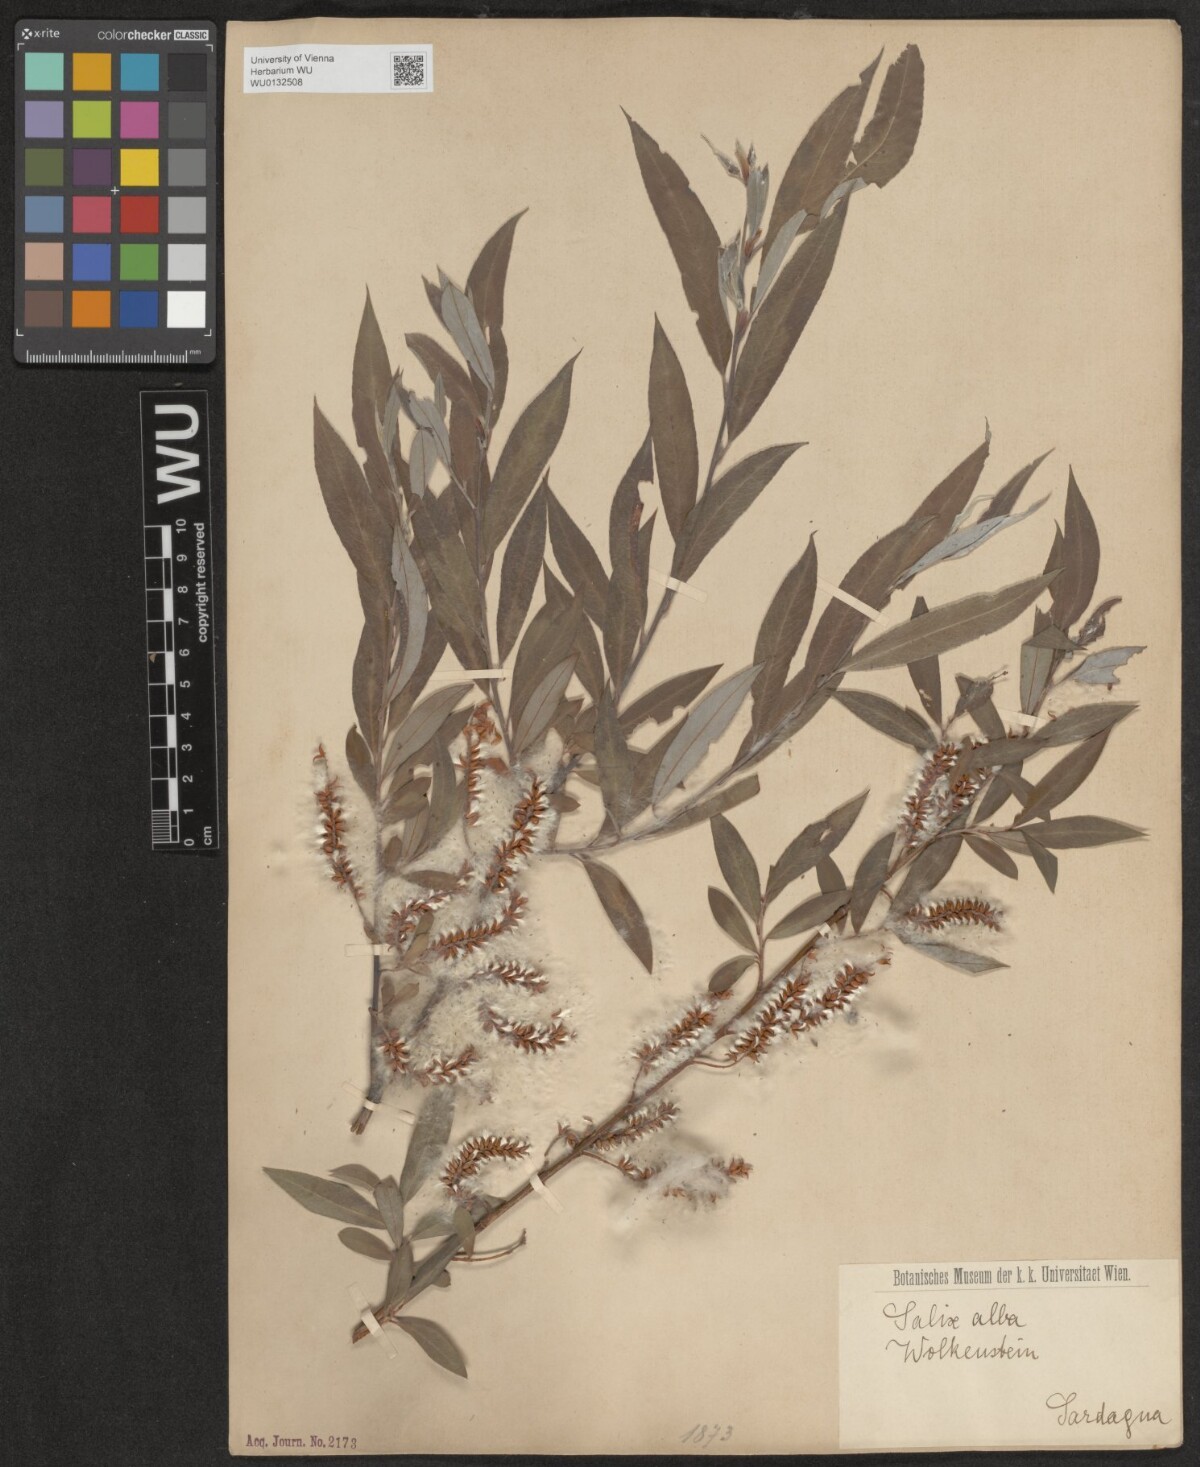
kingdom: Plantae
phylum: Tracheophyta
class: Magnoliopsida
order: Malpighiales
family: Salicaceae
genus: Salix
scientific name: Salix alba
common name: White willow
